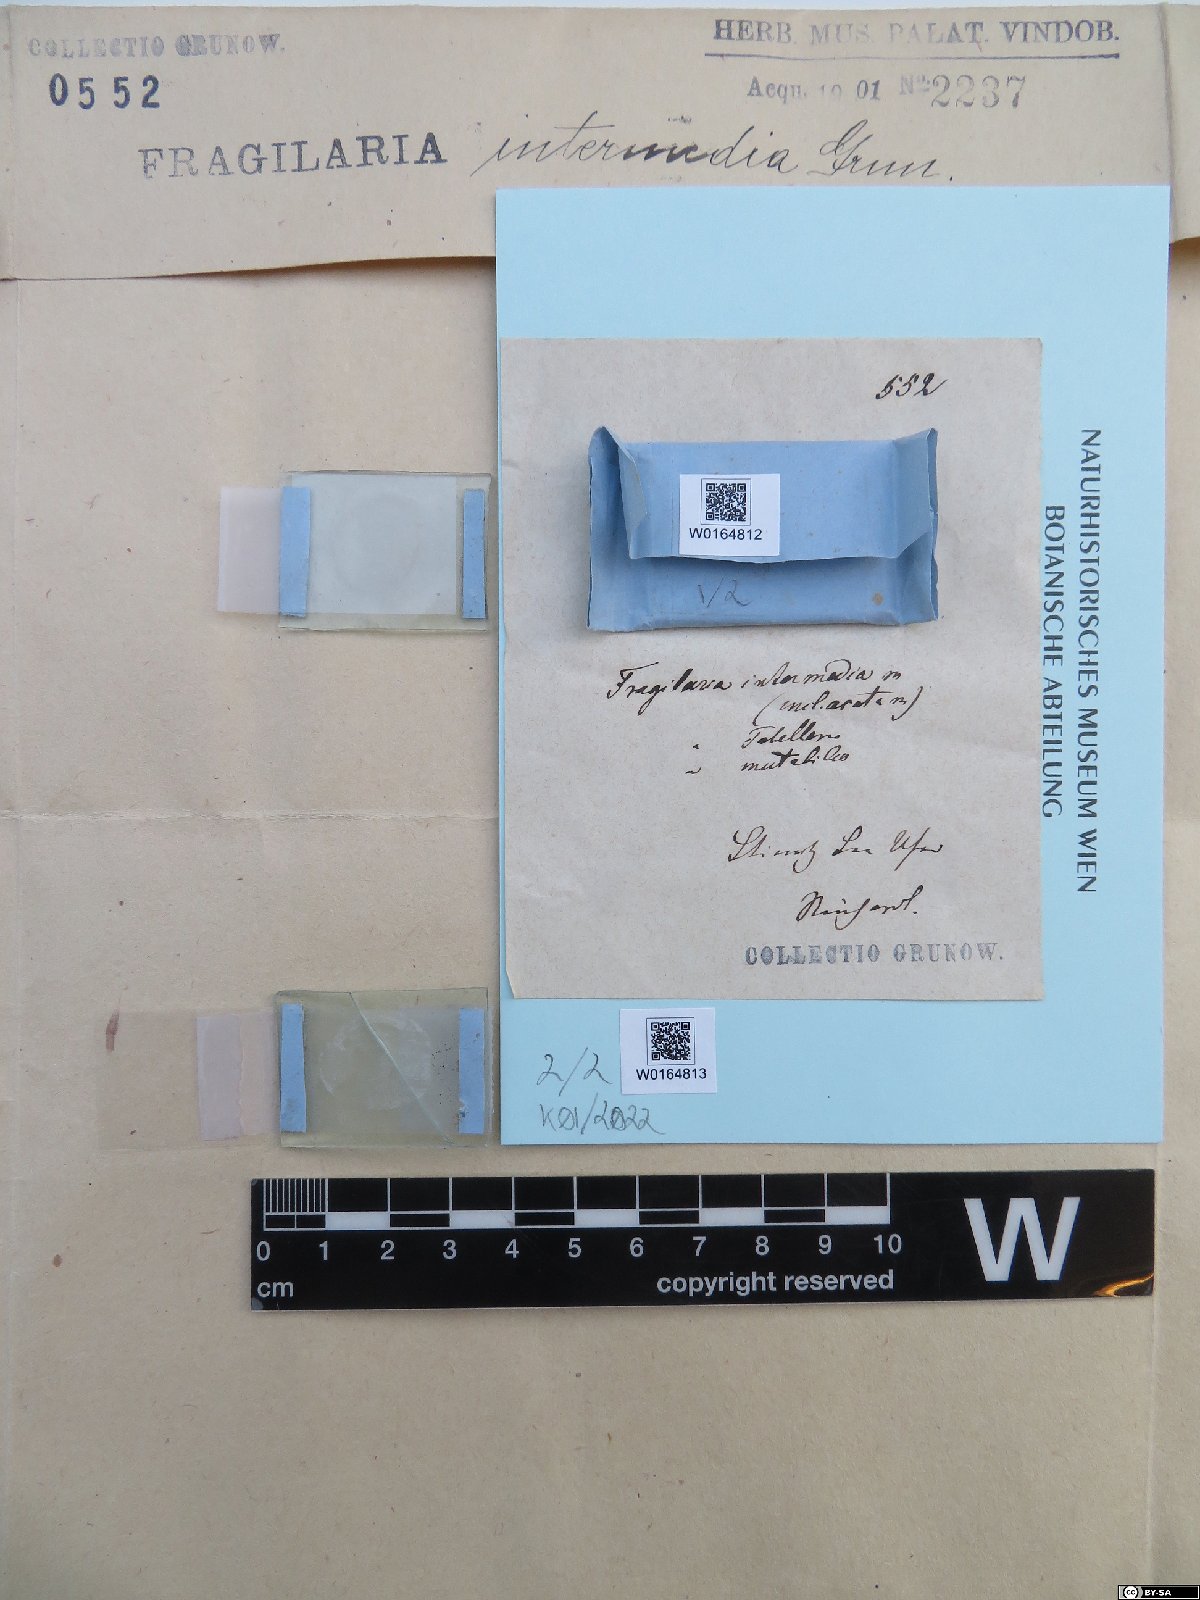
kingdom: Chromista
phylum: Ochrophyta
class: Bacillariophyceae
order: Fragilariales
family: Fragilariaceae
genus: Fragilaria
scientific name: Fragilaria intermedia
